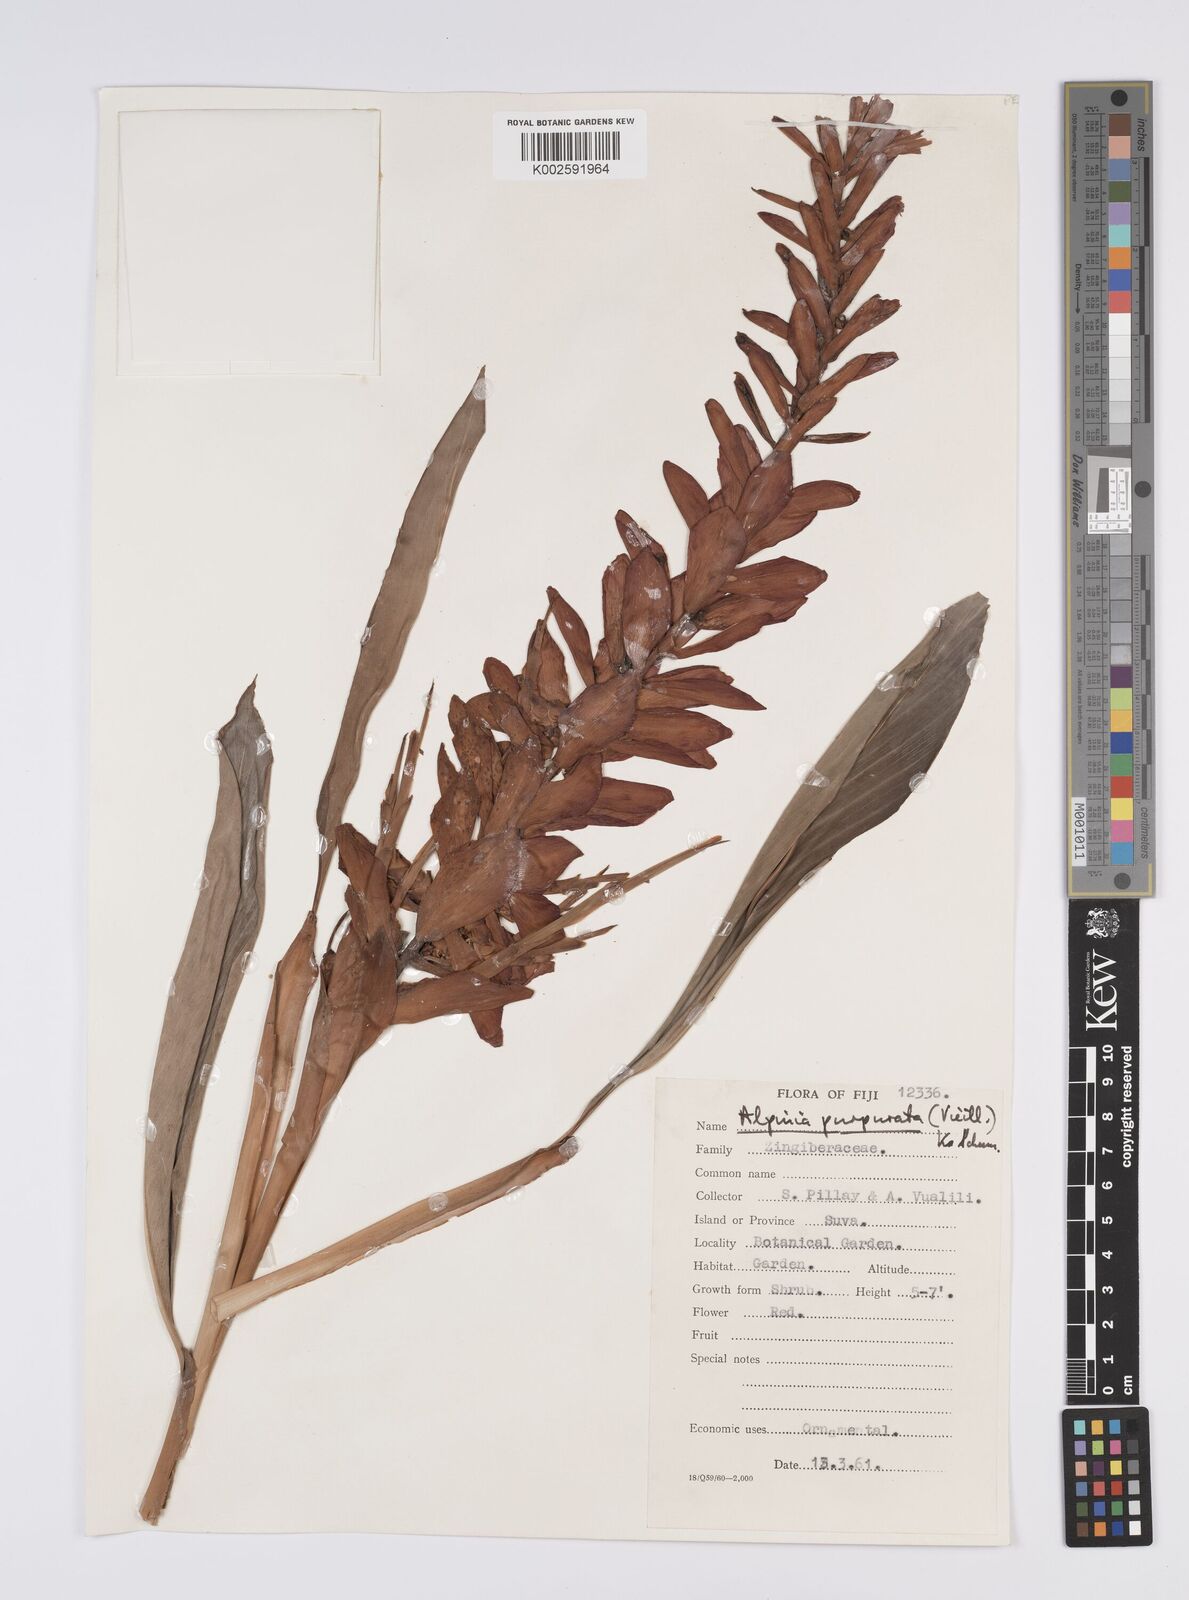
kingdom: Plantae
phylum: Tracheophyta
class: Liliopsida
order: Zingiberales
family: Zingiberaceae
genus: Alpinia
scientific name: Alpinia purpurata
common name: Red ginger
